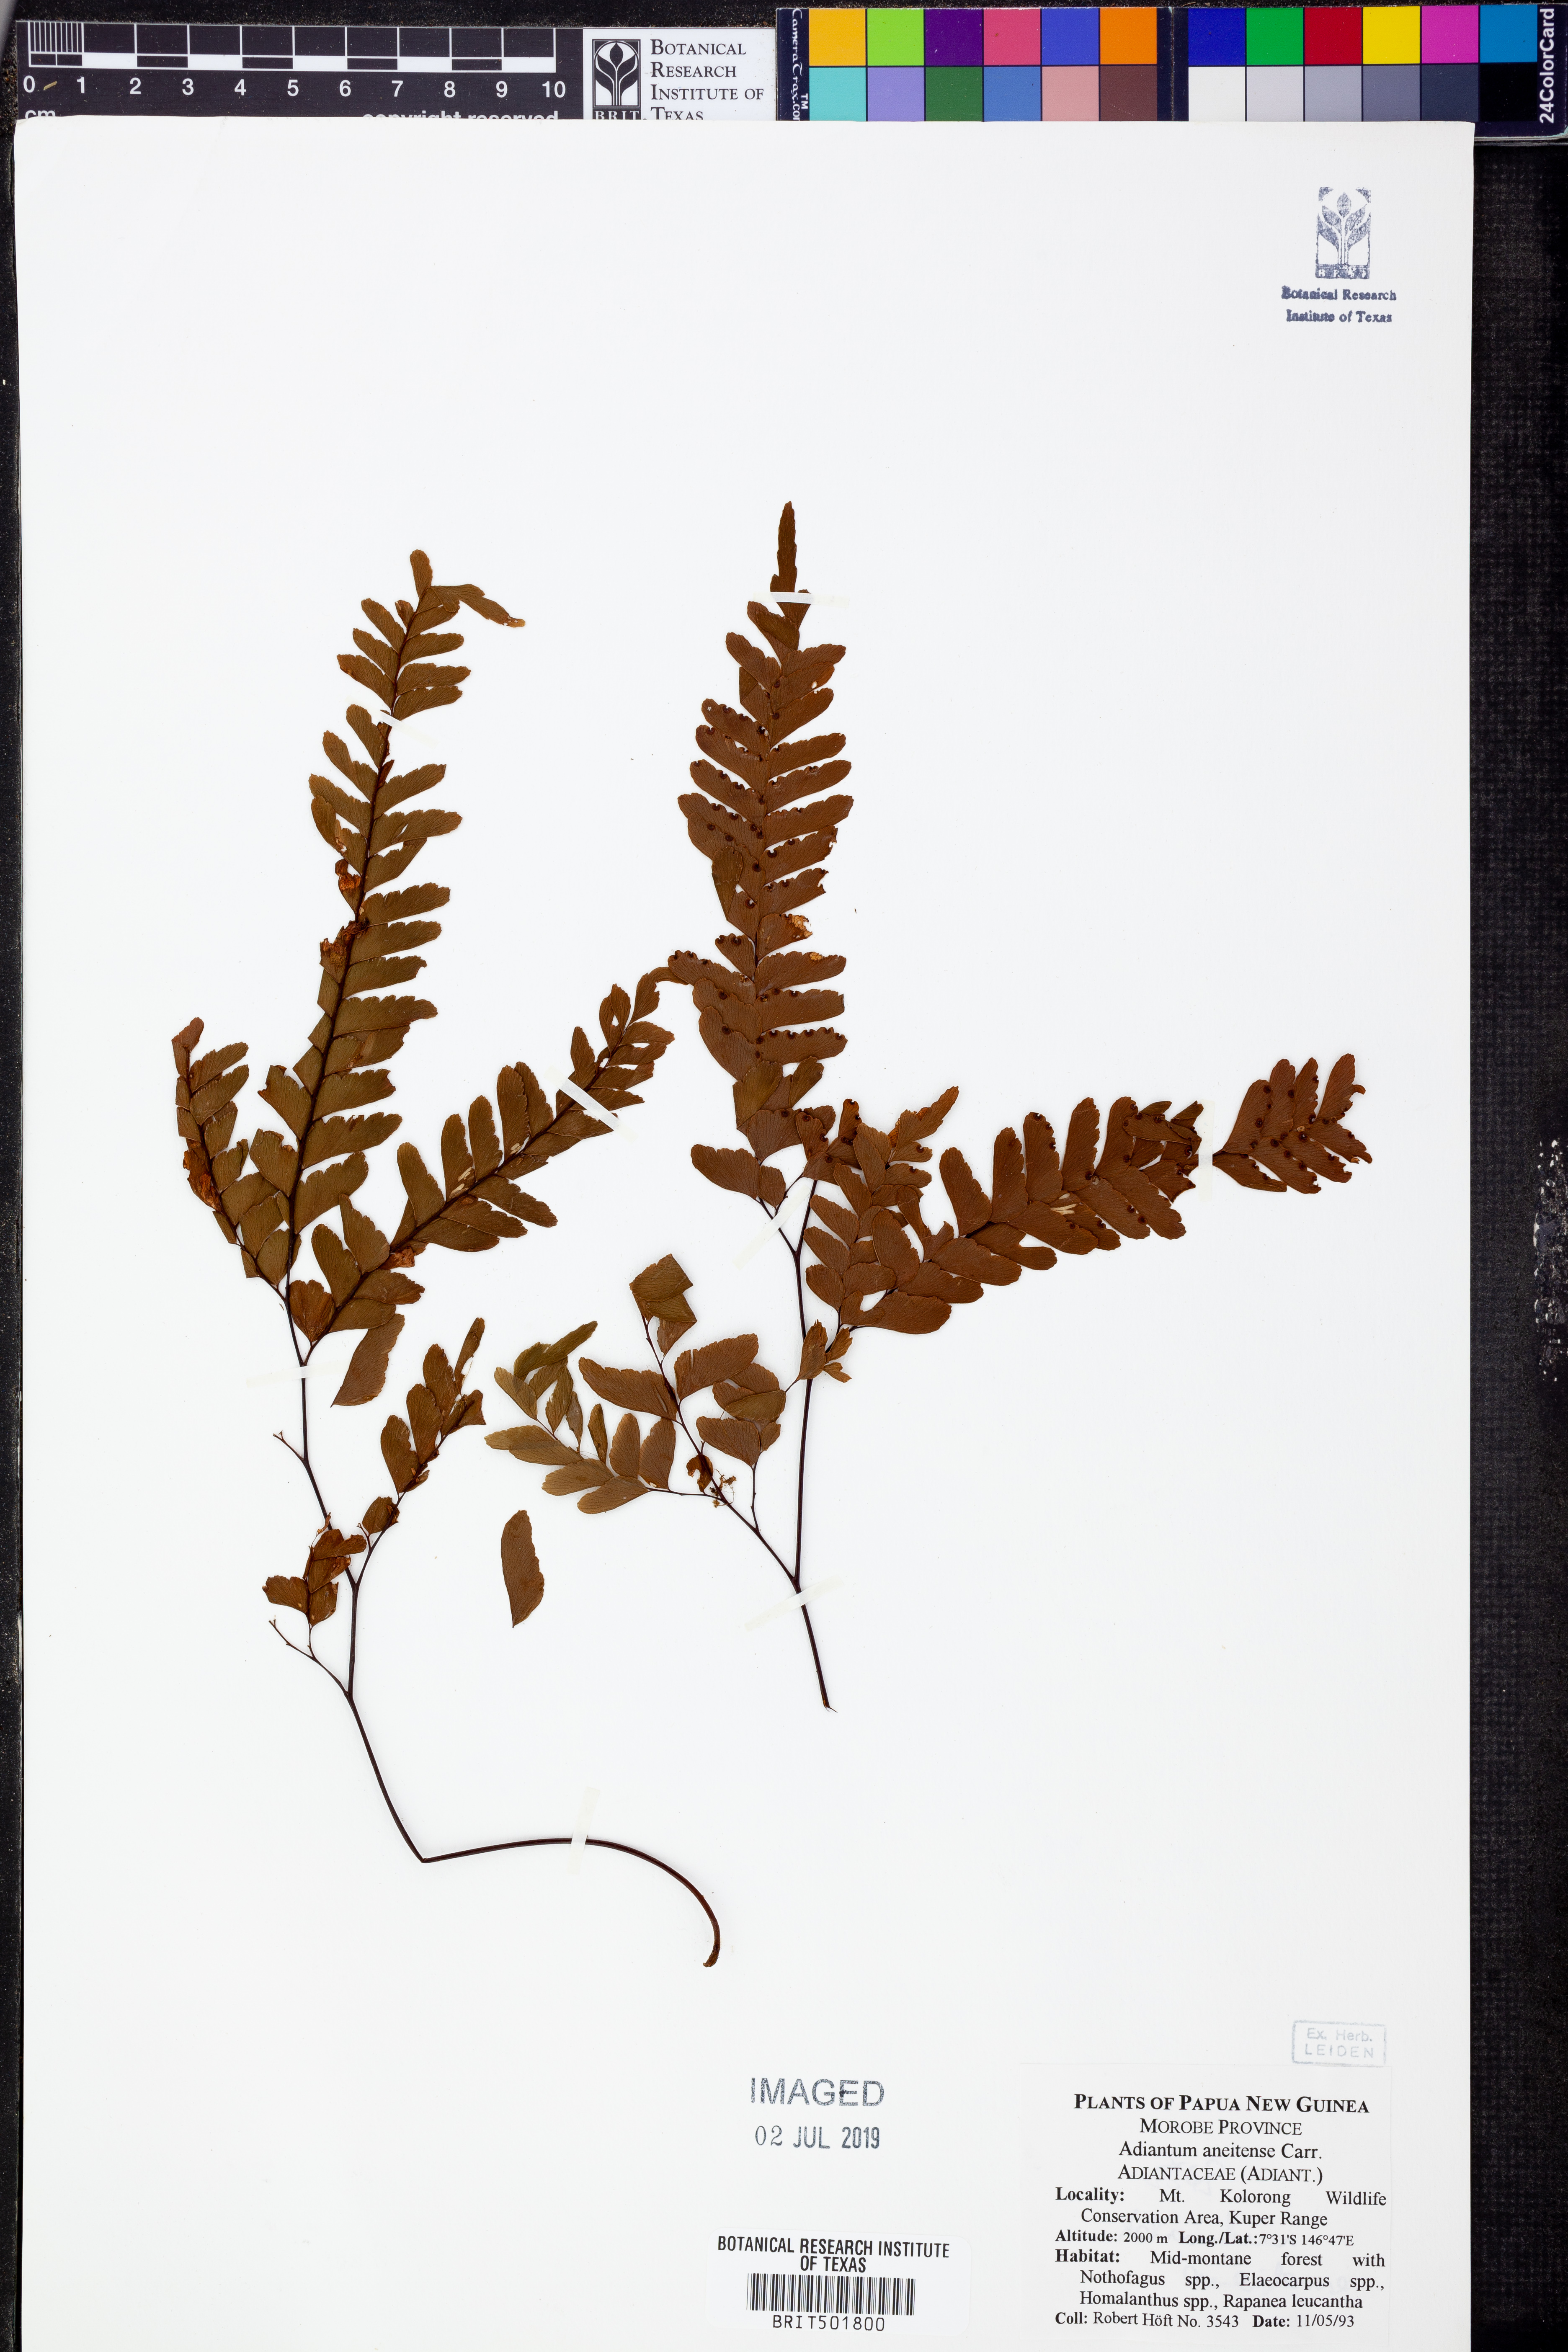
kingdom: Plantae
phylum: Tracheophyta
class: Polypodiopsida
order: Polypodiales
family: Pteridaceae
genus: Adiantum
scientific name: Adiantum aneitense
